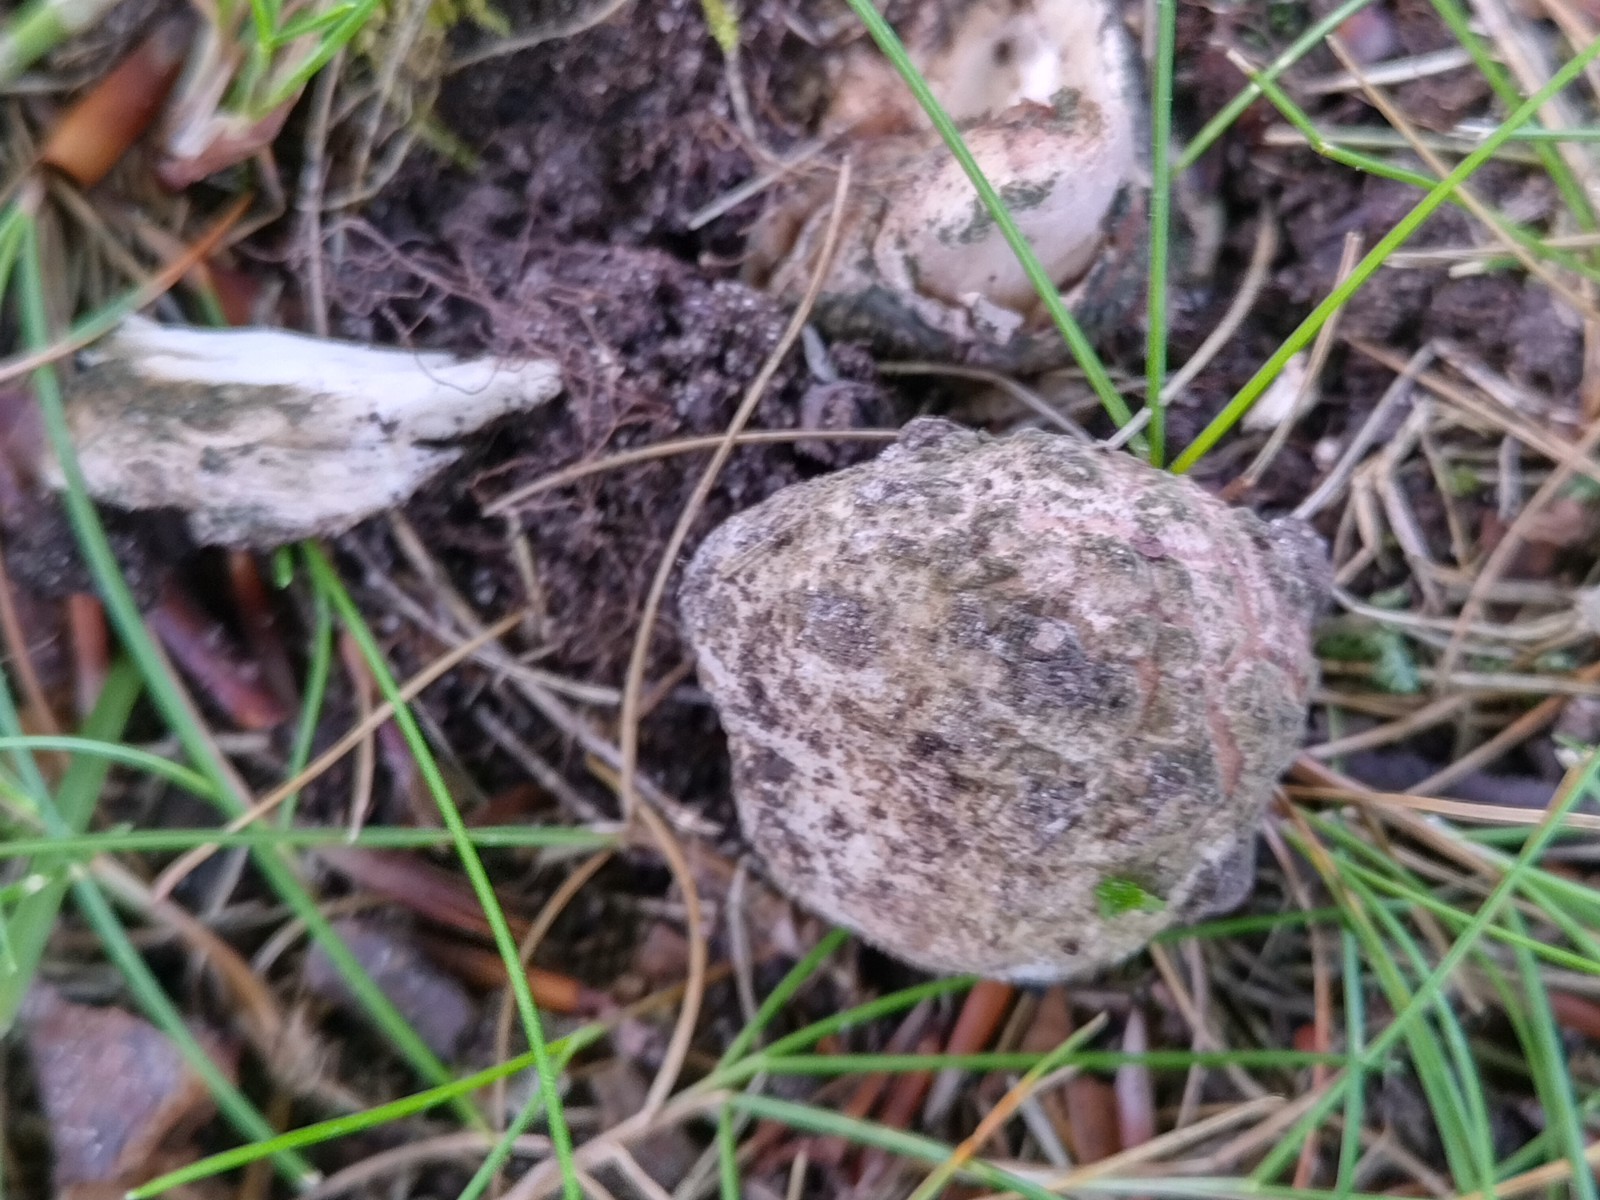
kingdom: Fungi
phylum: Basidiomycota
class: Agaricomycetes
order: Agaricales
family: Amanitaceae
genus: Amanita
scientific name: Amanita
